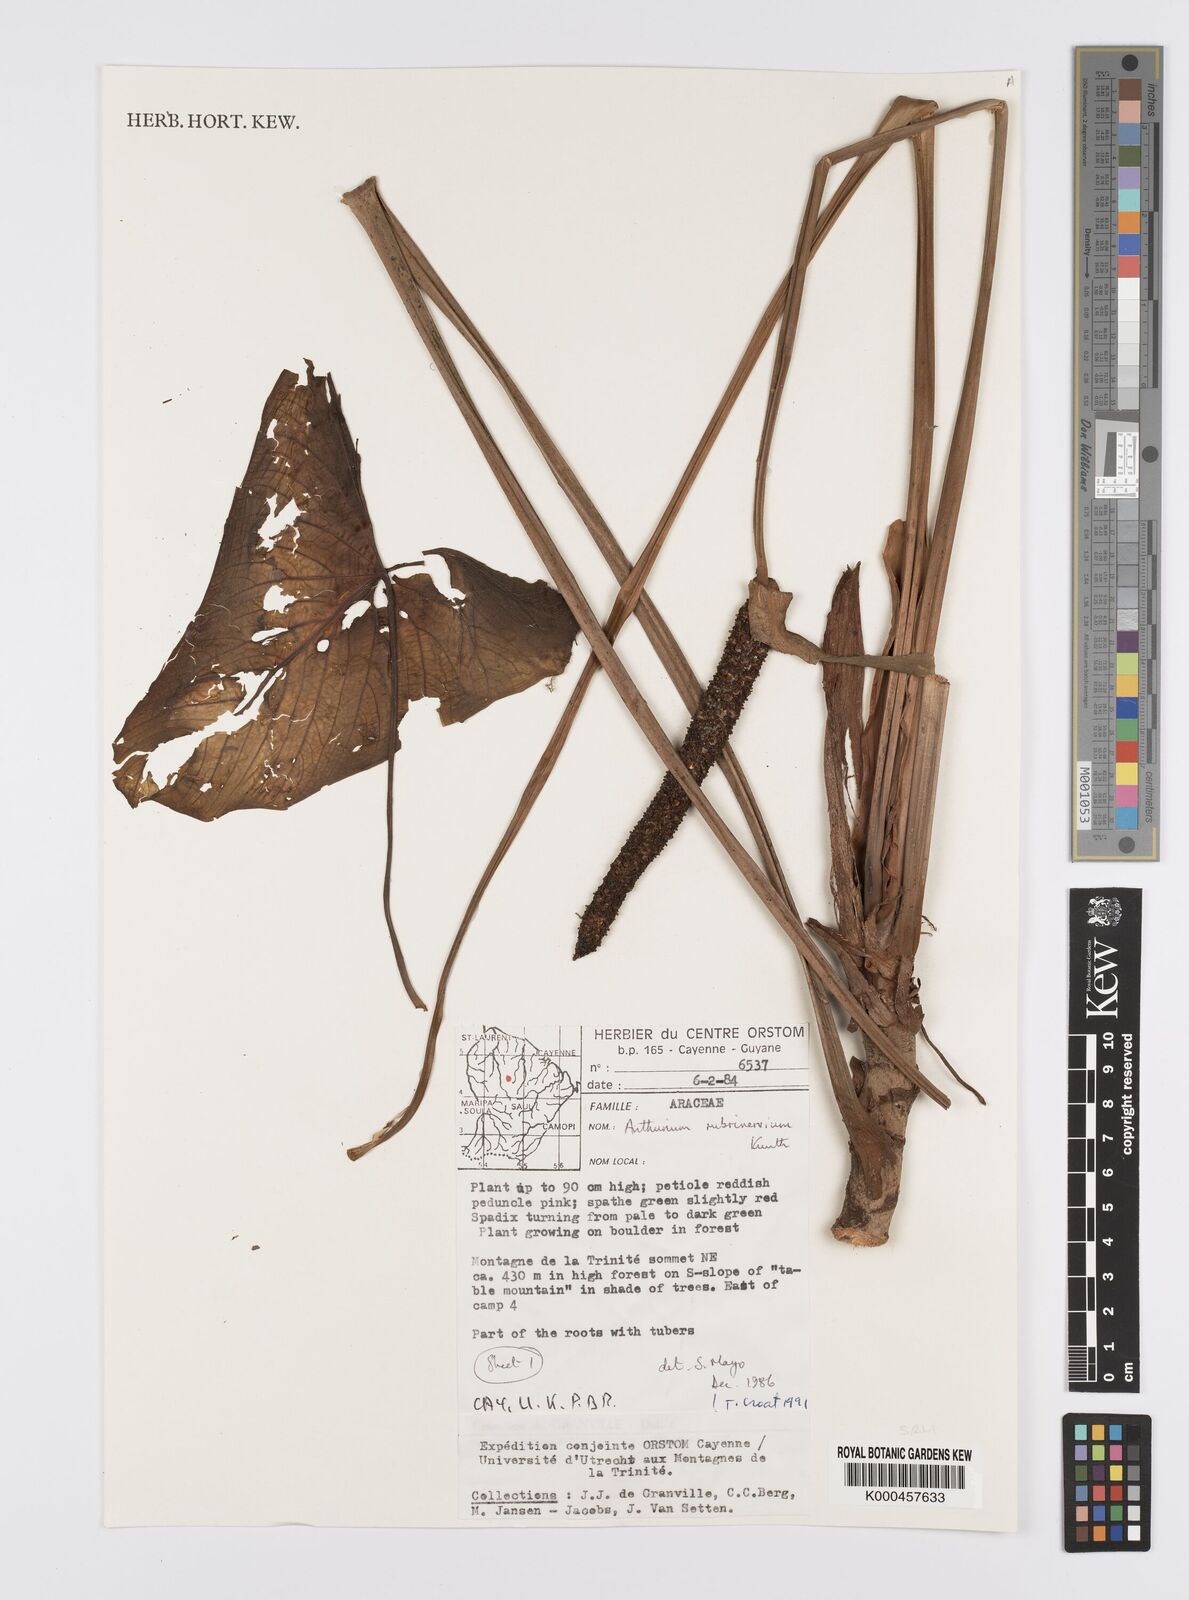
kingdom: Plantae
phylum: Tracheophyta
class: Liliopsida
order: Alismatales
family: Araceae
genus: Anthurium
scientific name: Anthurium sagittatum
